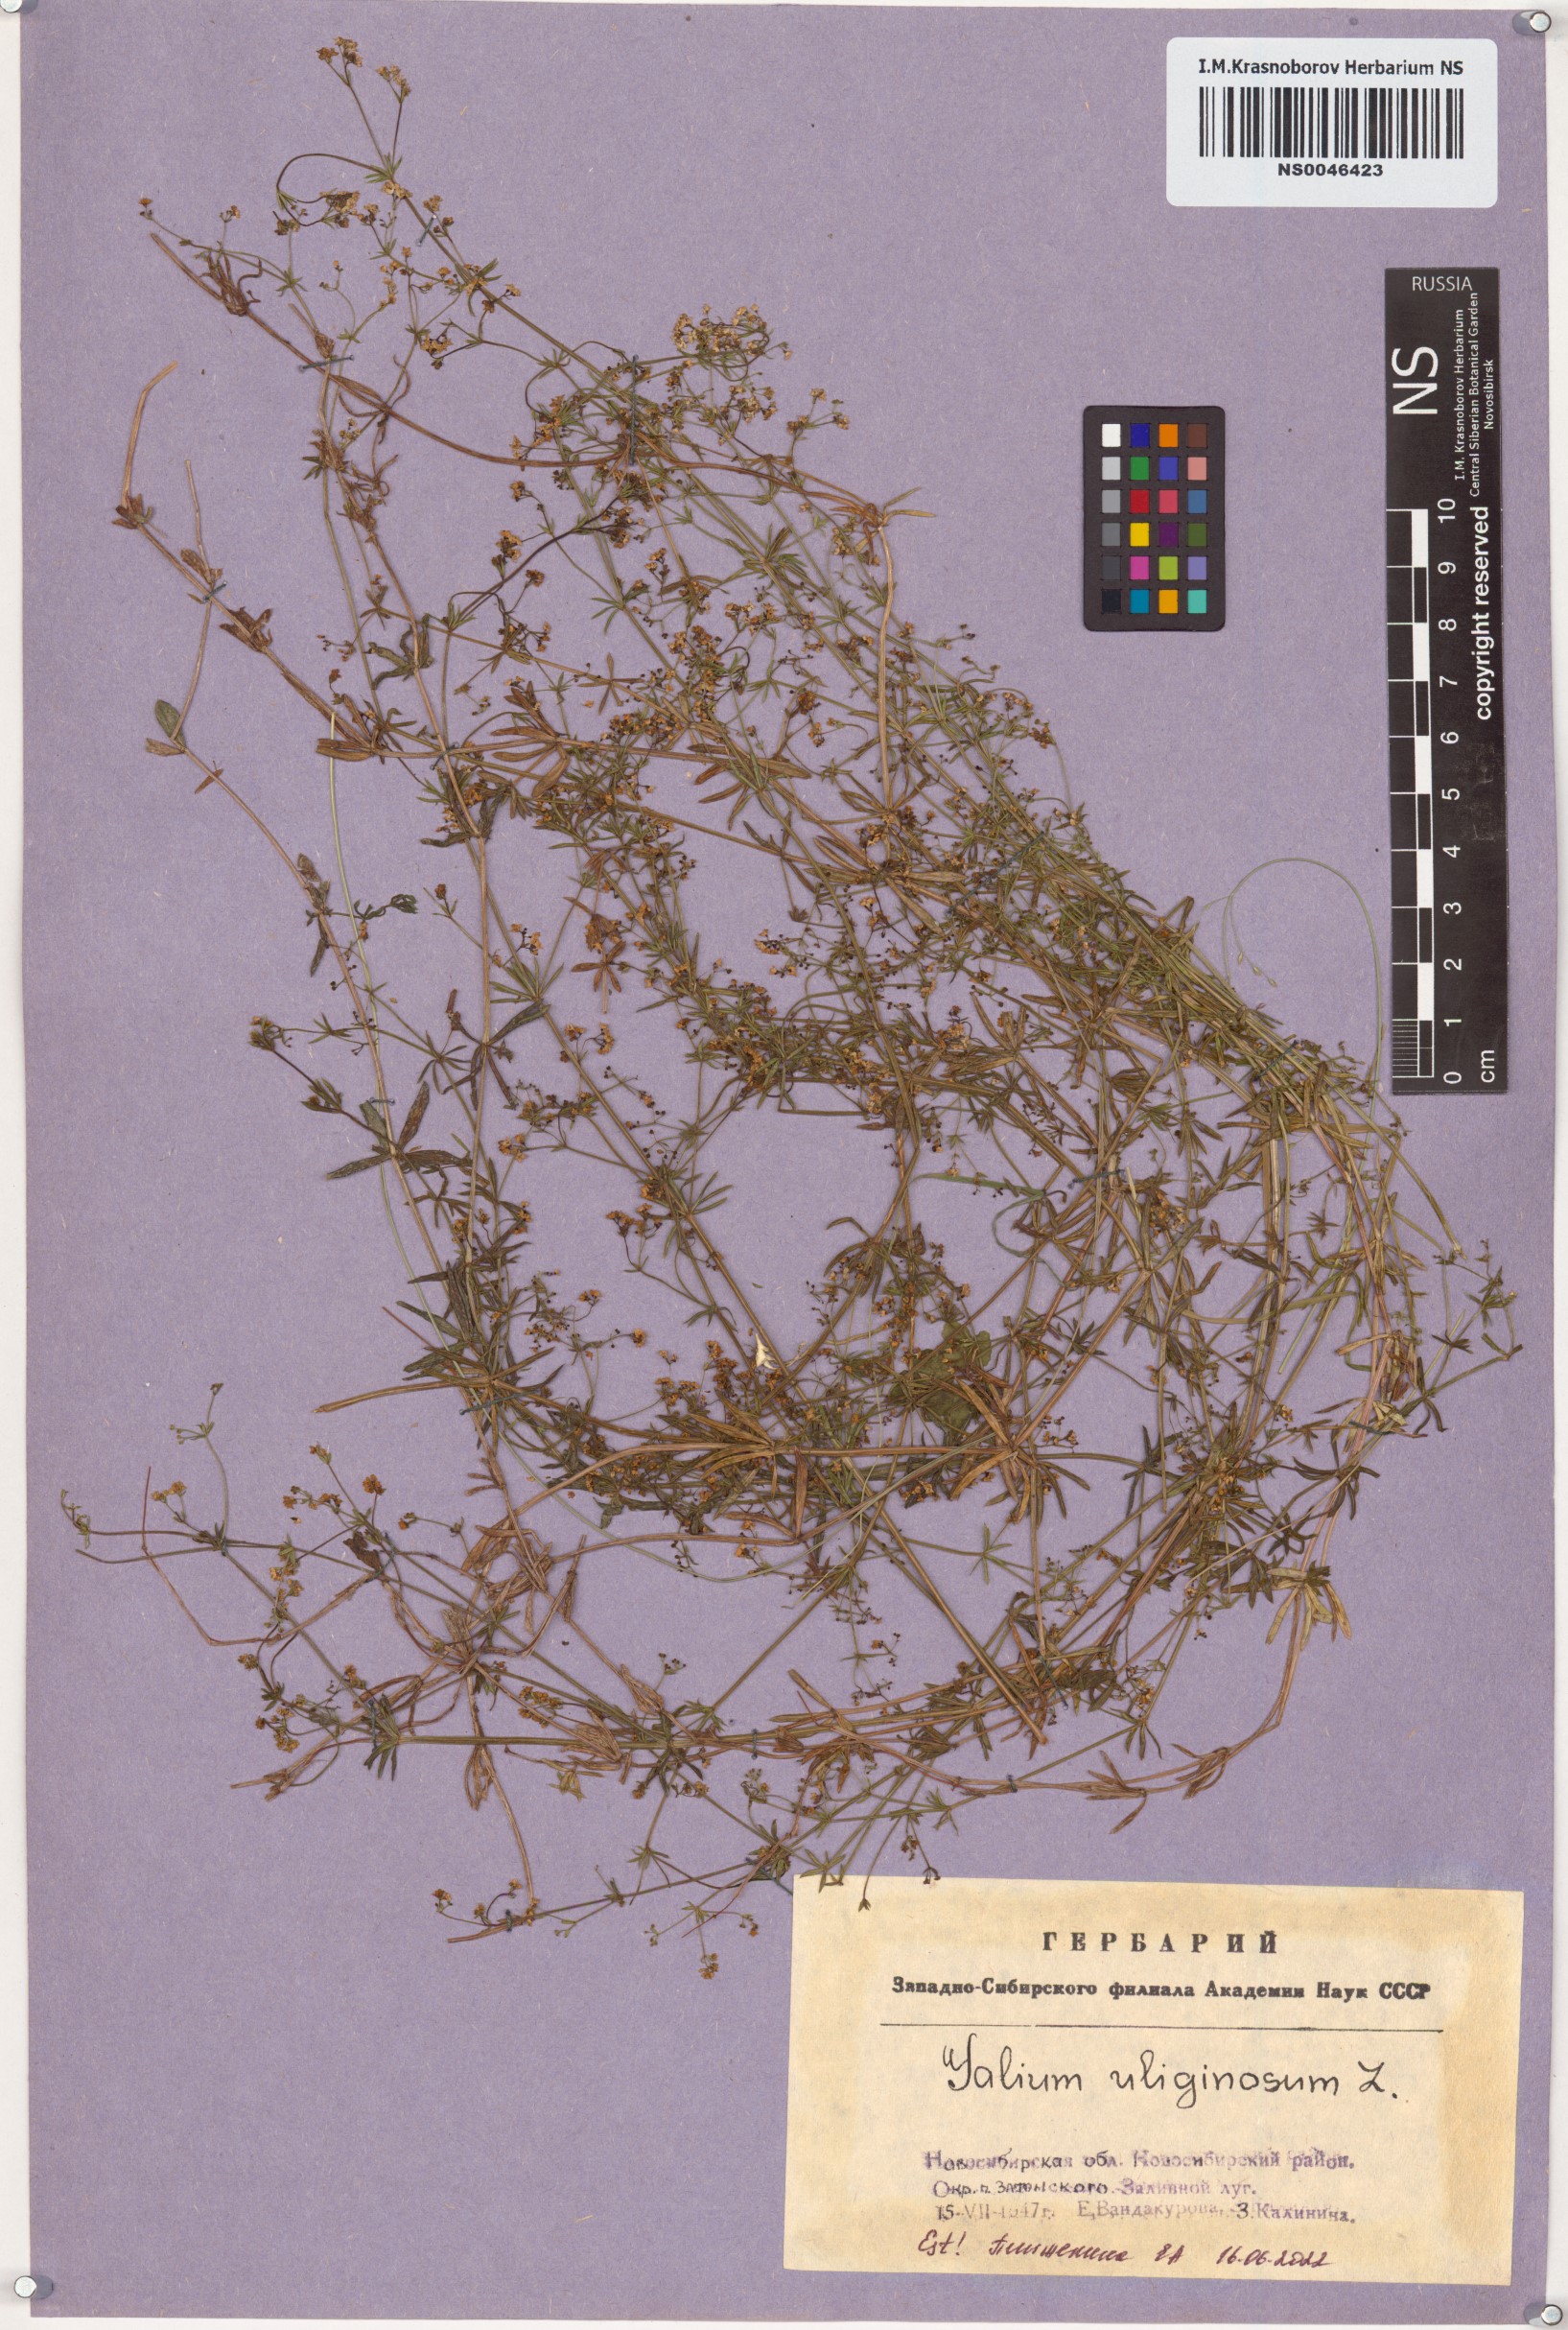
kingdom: Plantae
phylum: Tracheophyta
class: Magnoliopsida
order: Gentianales
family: Rubiaceae
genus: Galium
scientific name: Galium uliginosum
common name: Fen bedstraw
